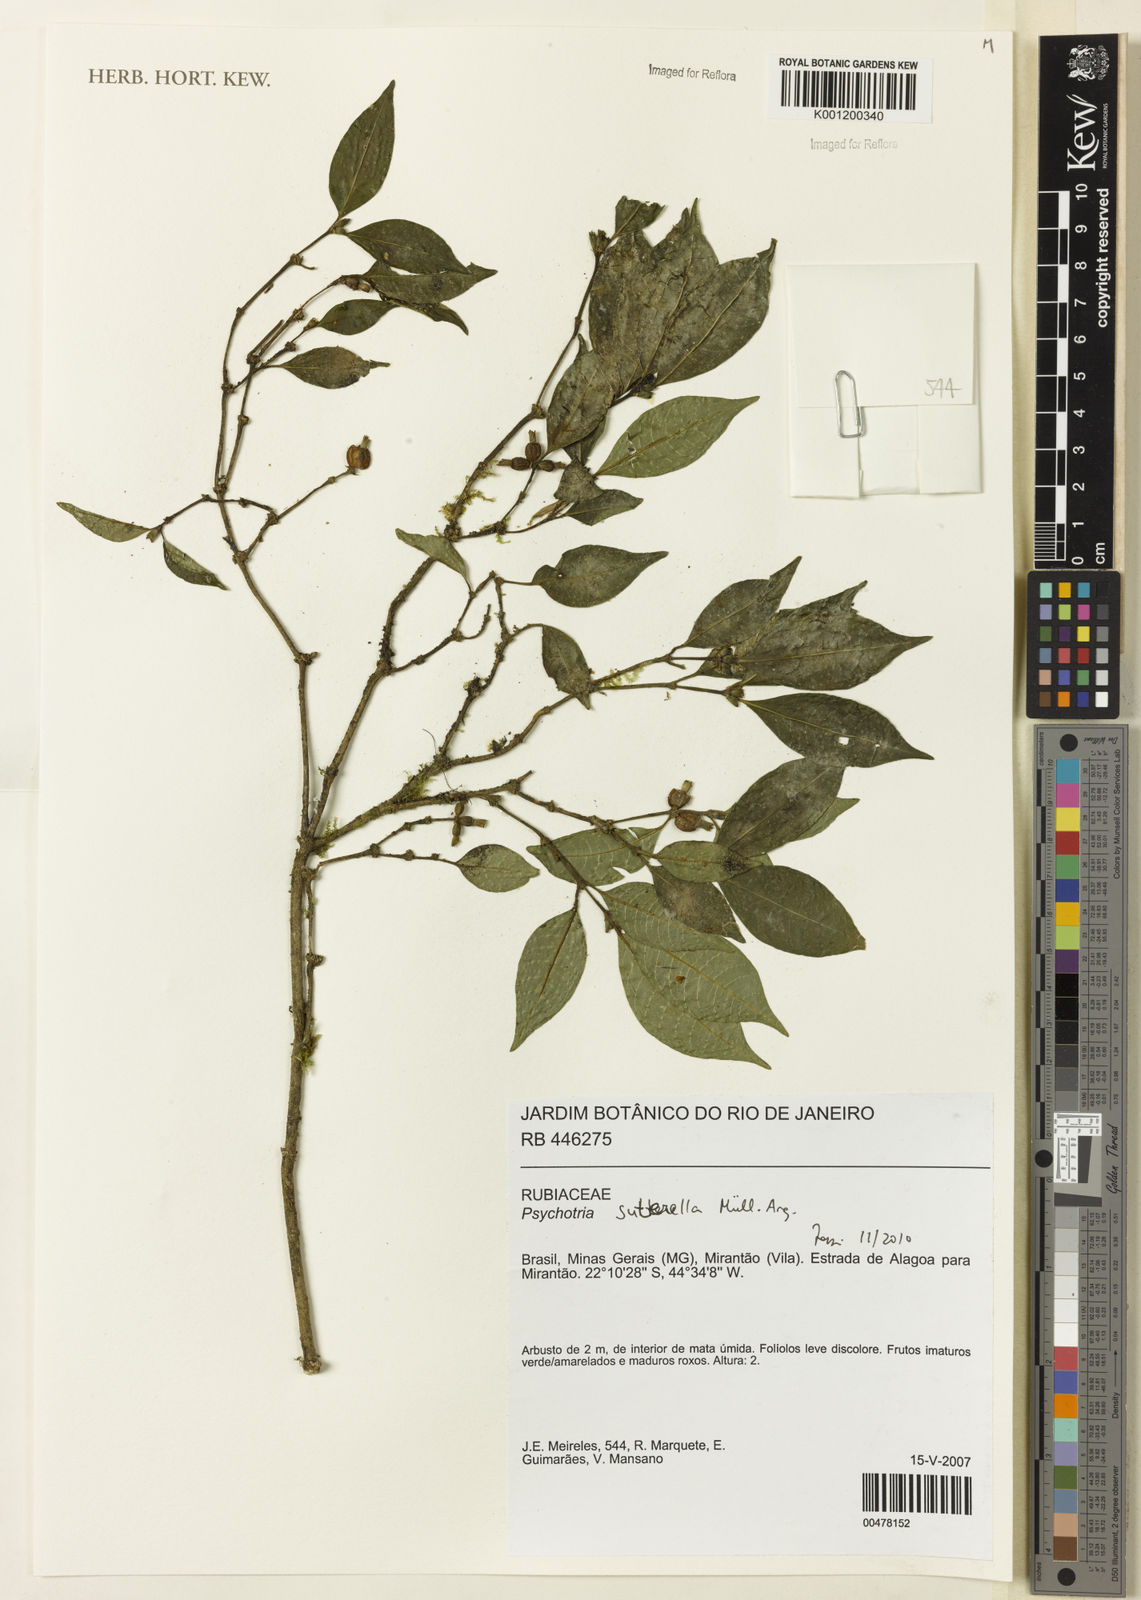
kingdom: Plantae
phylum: Tracheophyta
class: Magnoliopsida
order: Gentianales
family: Rubiaceae
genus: Psychotria
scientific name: Psychotria
